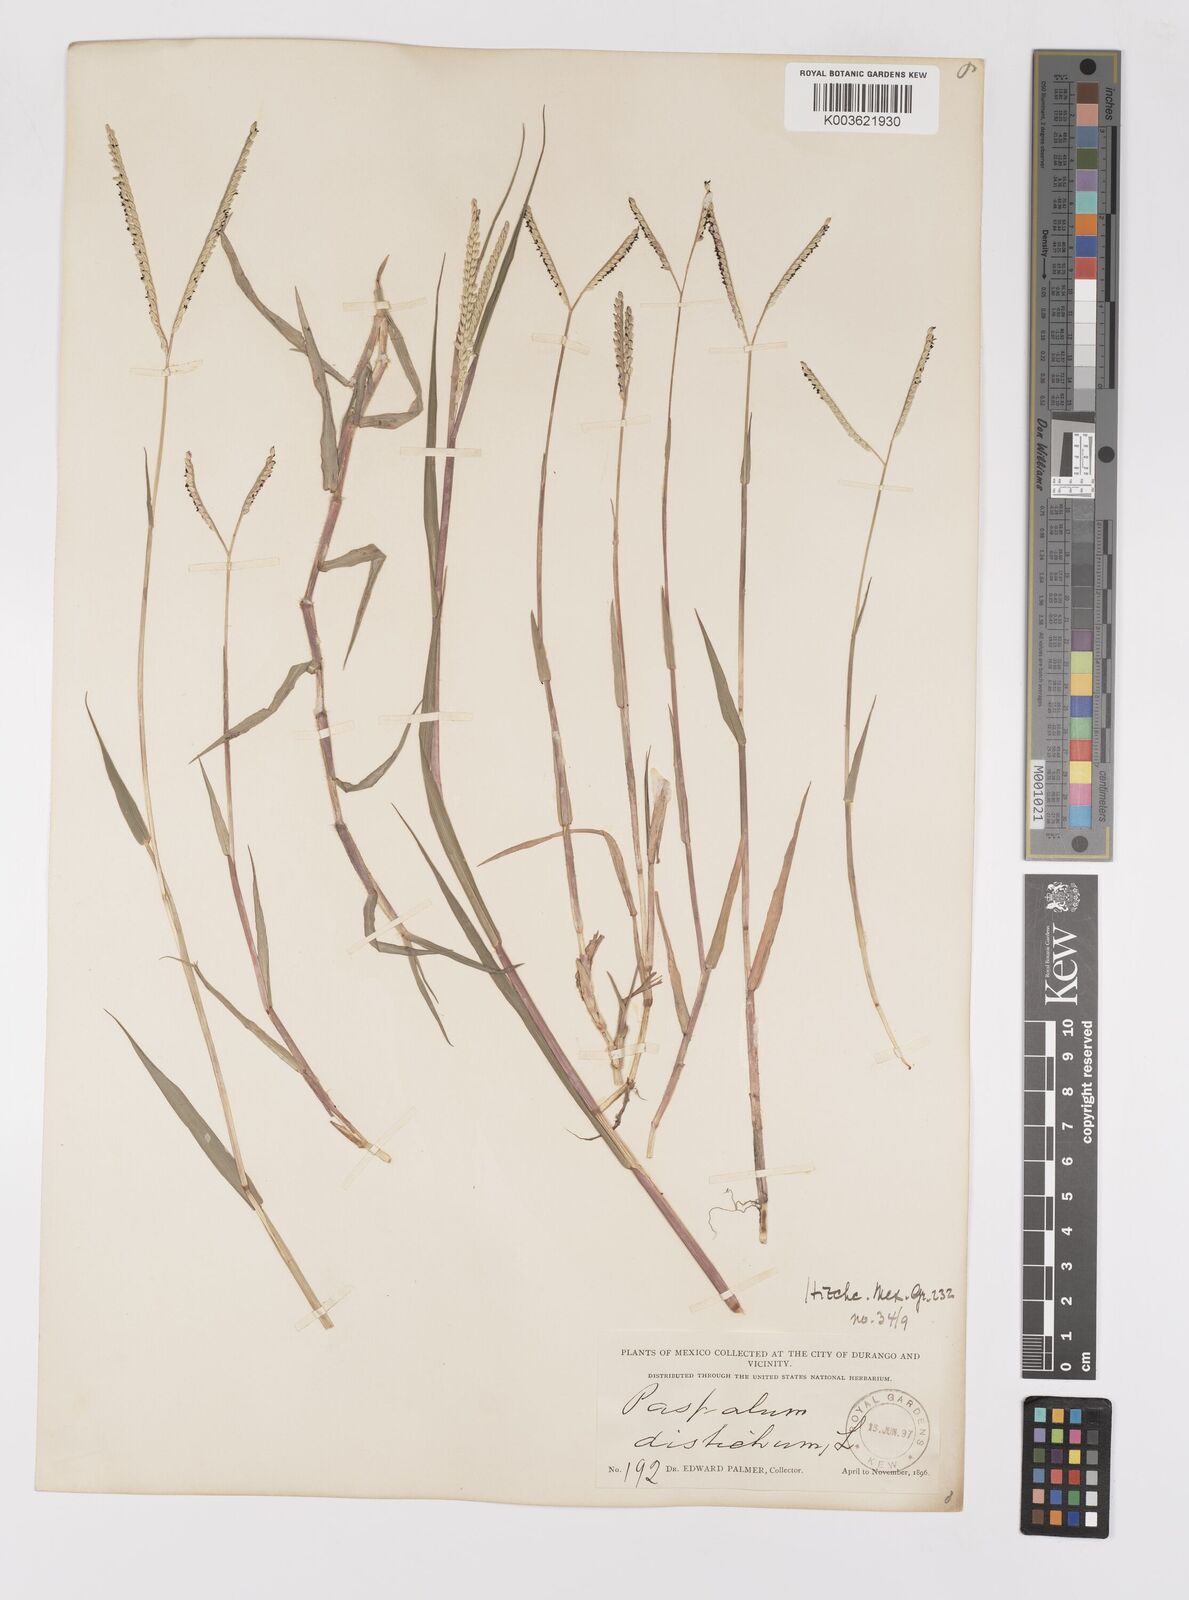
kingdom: Plantae
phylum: Tracheophyta
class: Liliopsida
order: Poales
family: Poaceae
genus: Paspalum
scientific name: Paspalum distichum
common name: Knotgrass
